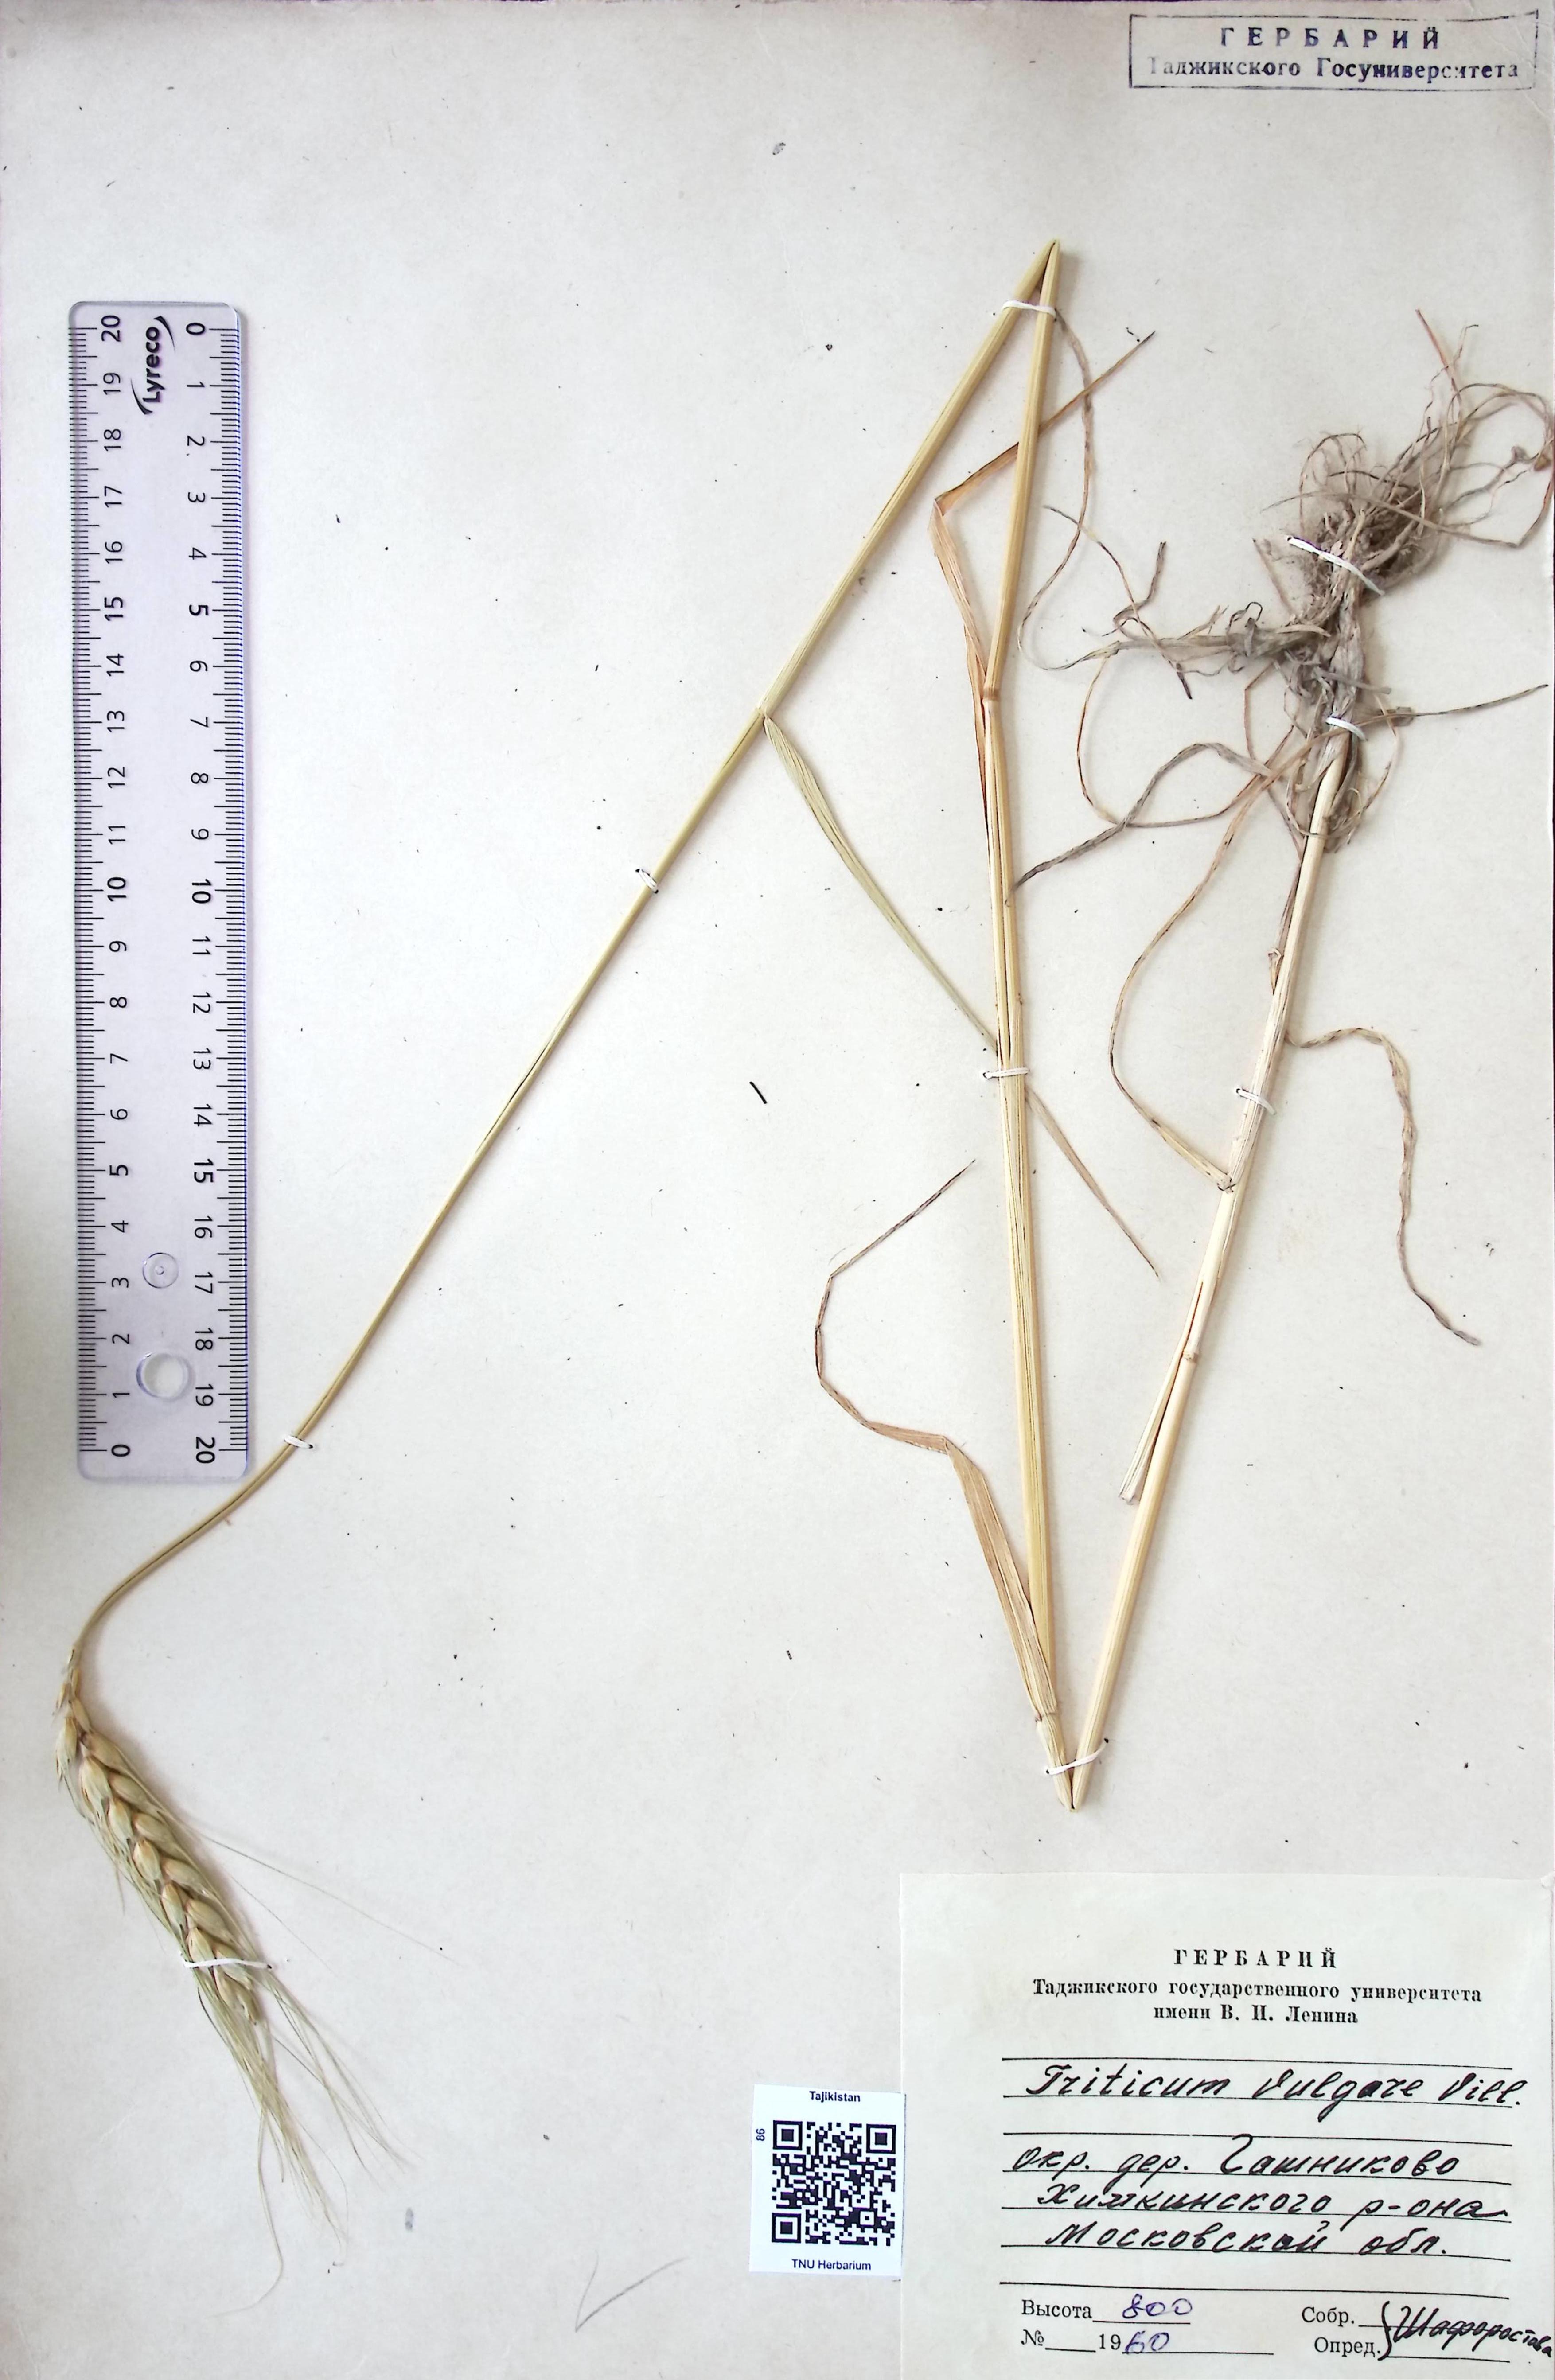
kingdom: Plantae
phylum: Tracheophyta
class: Liliopsida
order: Poales
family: Poaceae
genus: Triticum
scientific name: Triticum aestivum
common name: Common wheat
